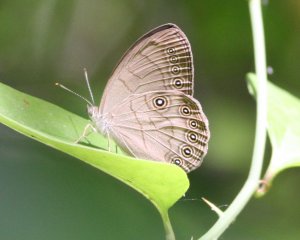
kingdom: Animalia
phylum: Arthropoda
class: Insecta
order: Lepidoptera
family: Nymphalidae
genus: Lethe
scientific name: Lethe eurydice
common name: Appalachian Eyed Brown
